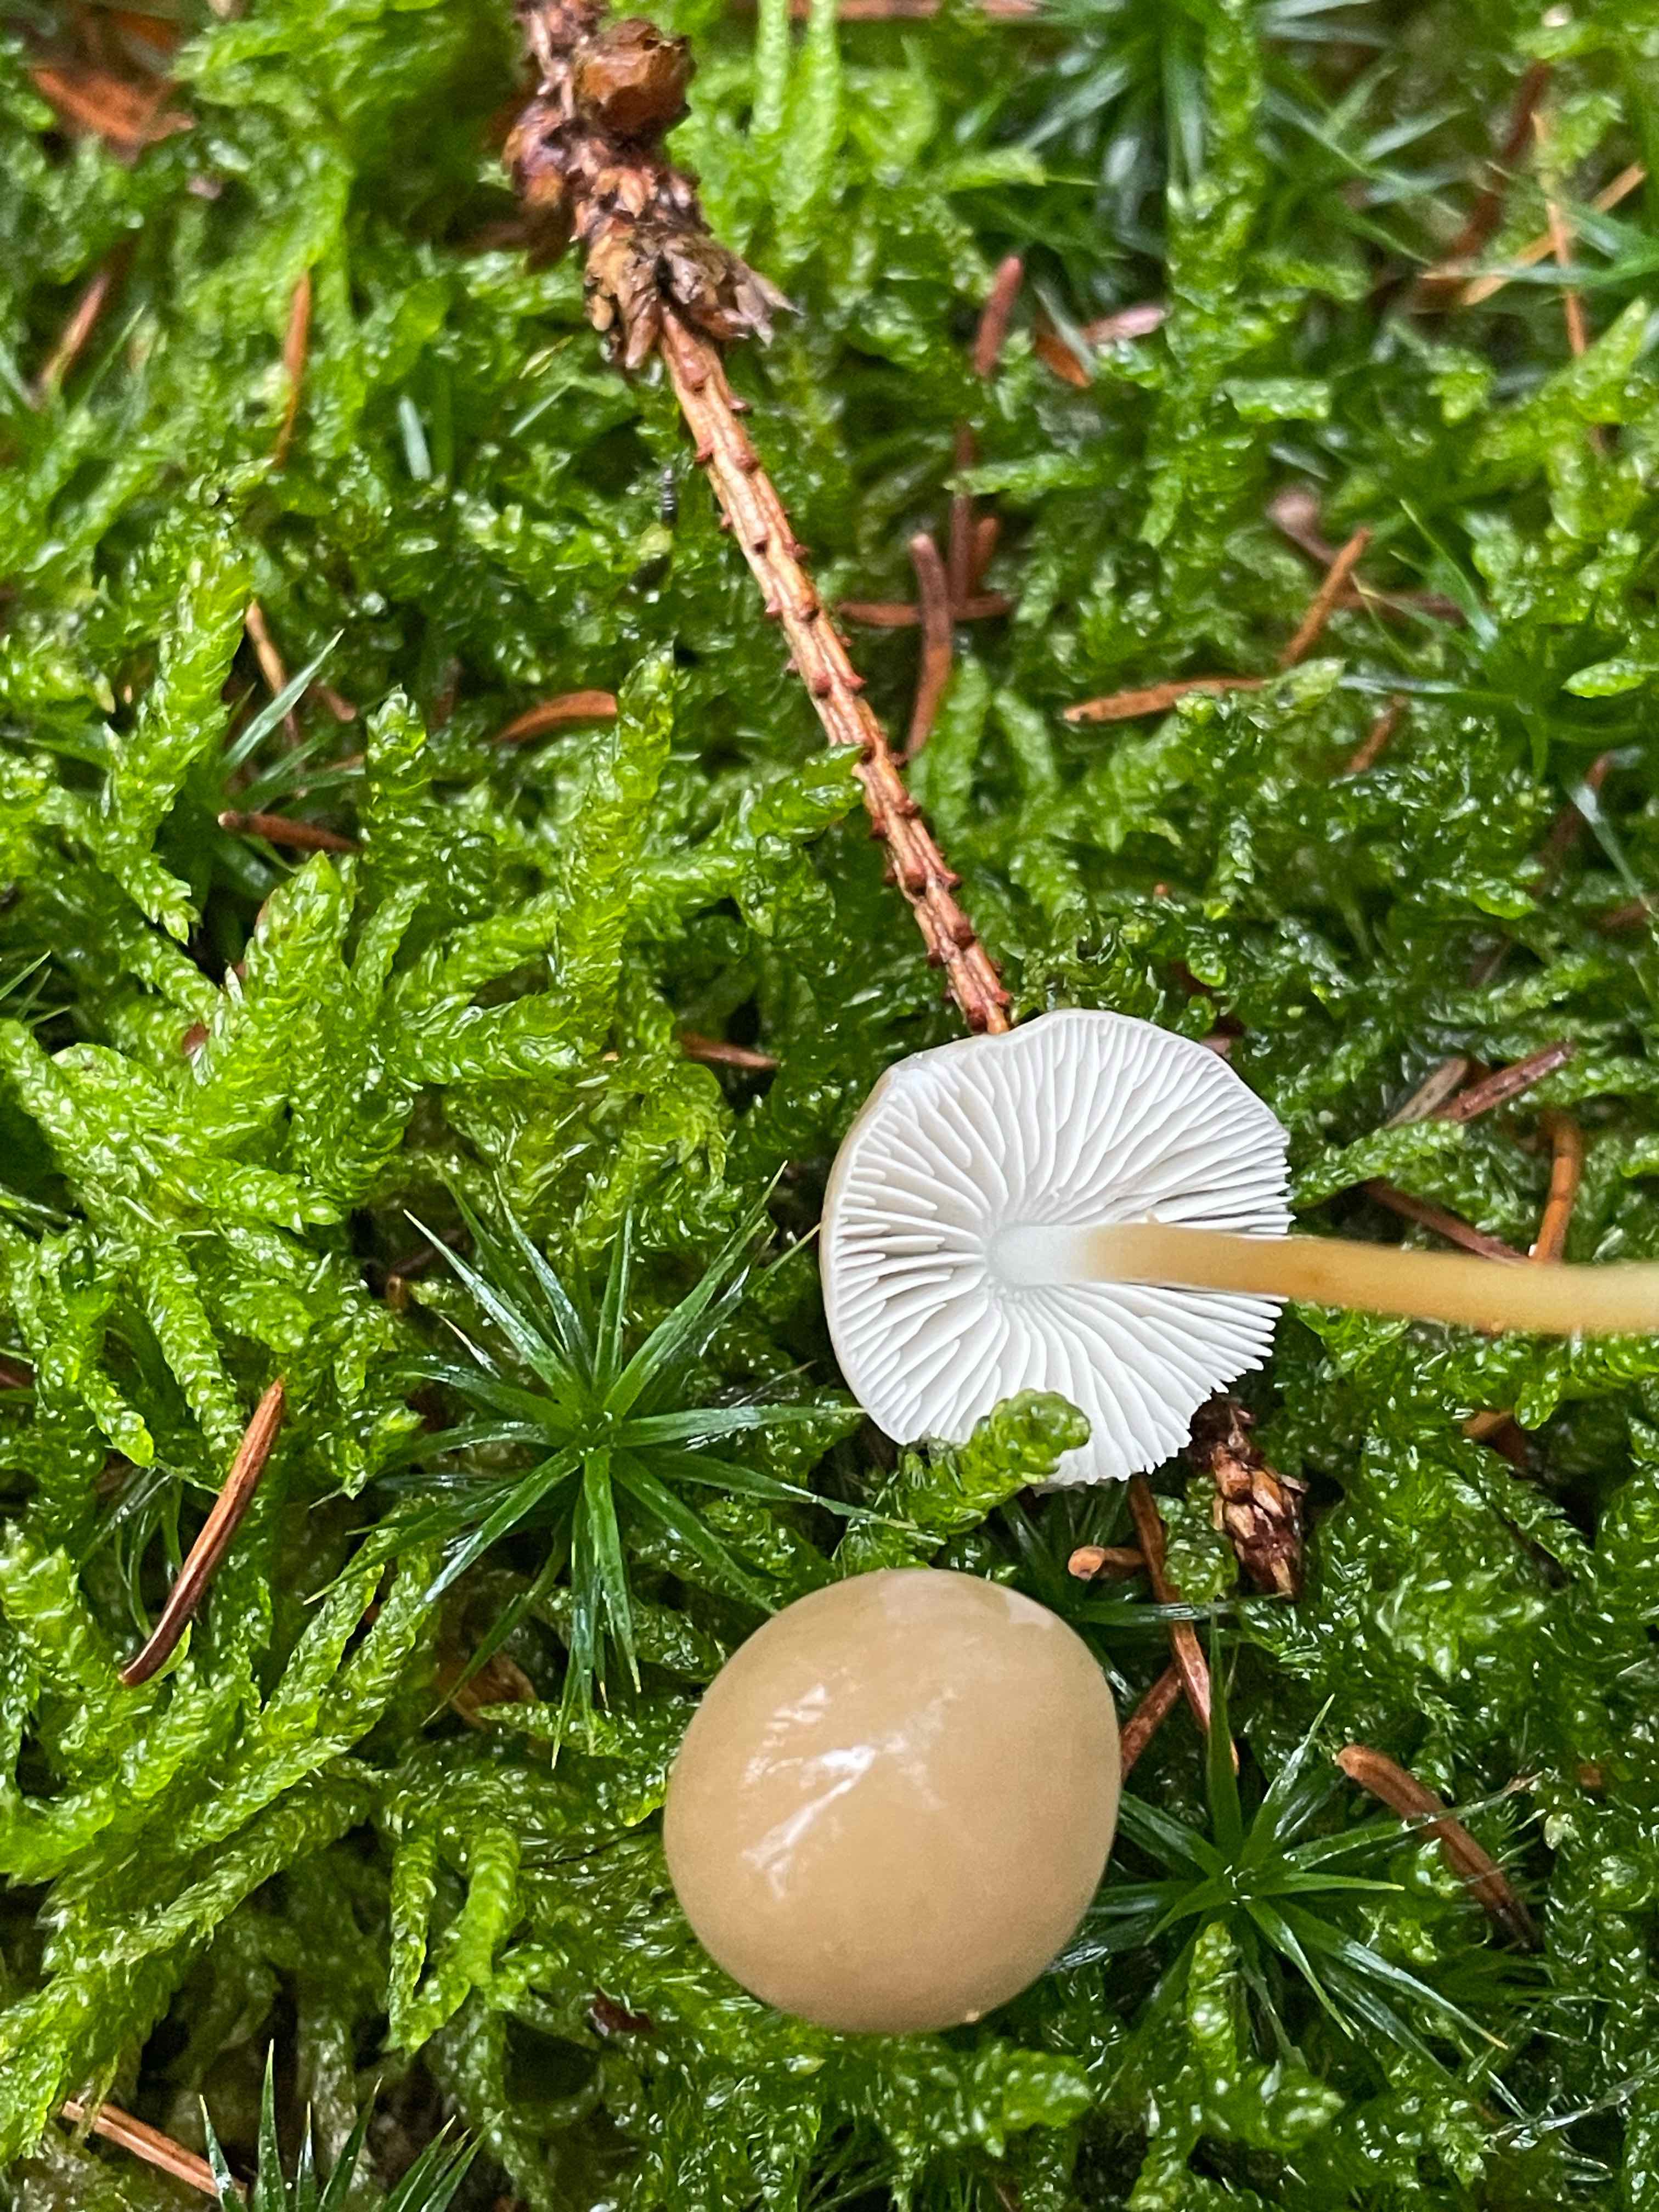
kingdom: Fungi
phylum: Basidiomycota
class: Agaricomycetes
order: Agaricales
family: Physalacriaceae
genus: Strobilurus
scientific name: Strobilurus esculentus
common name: gran-koglehat
